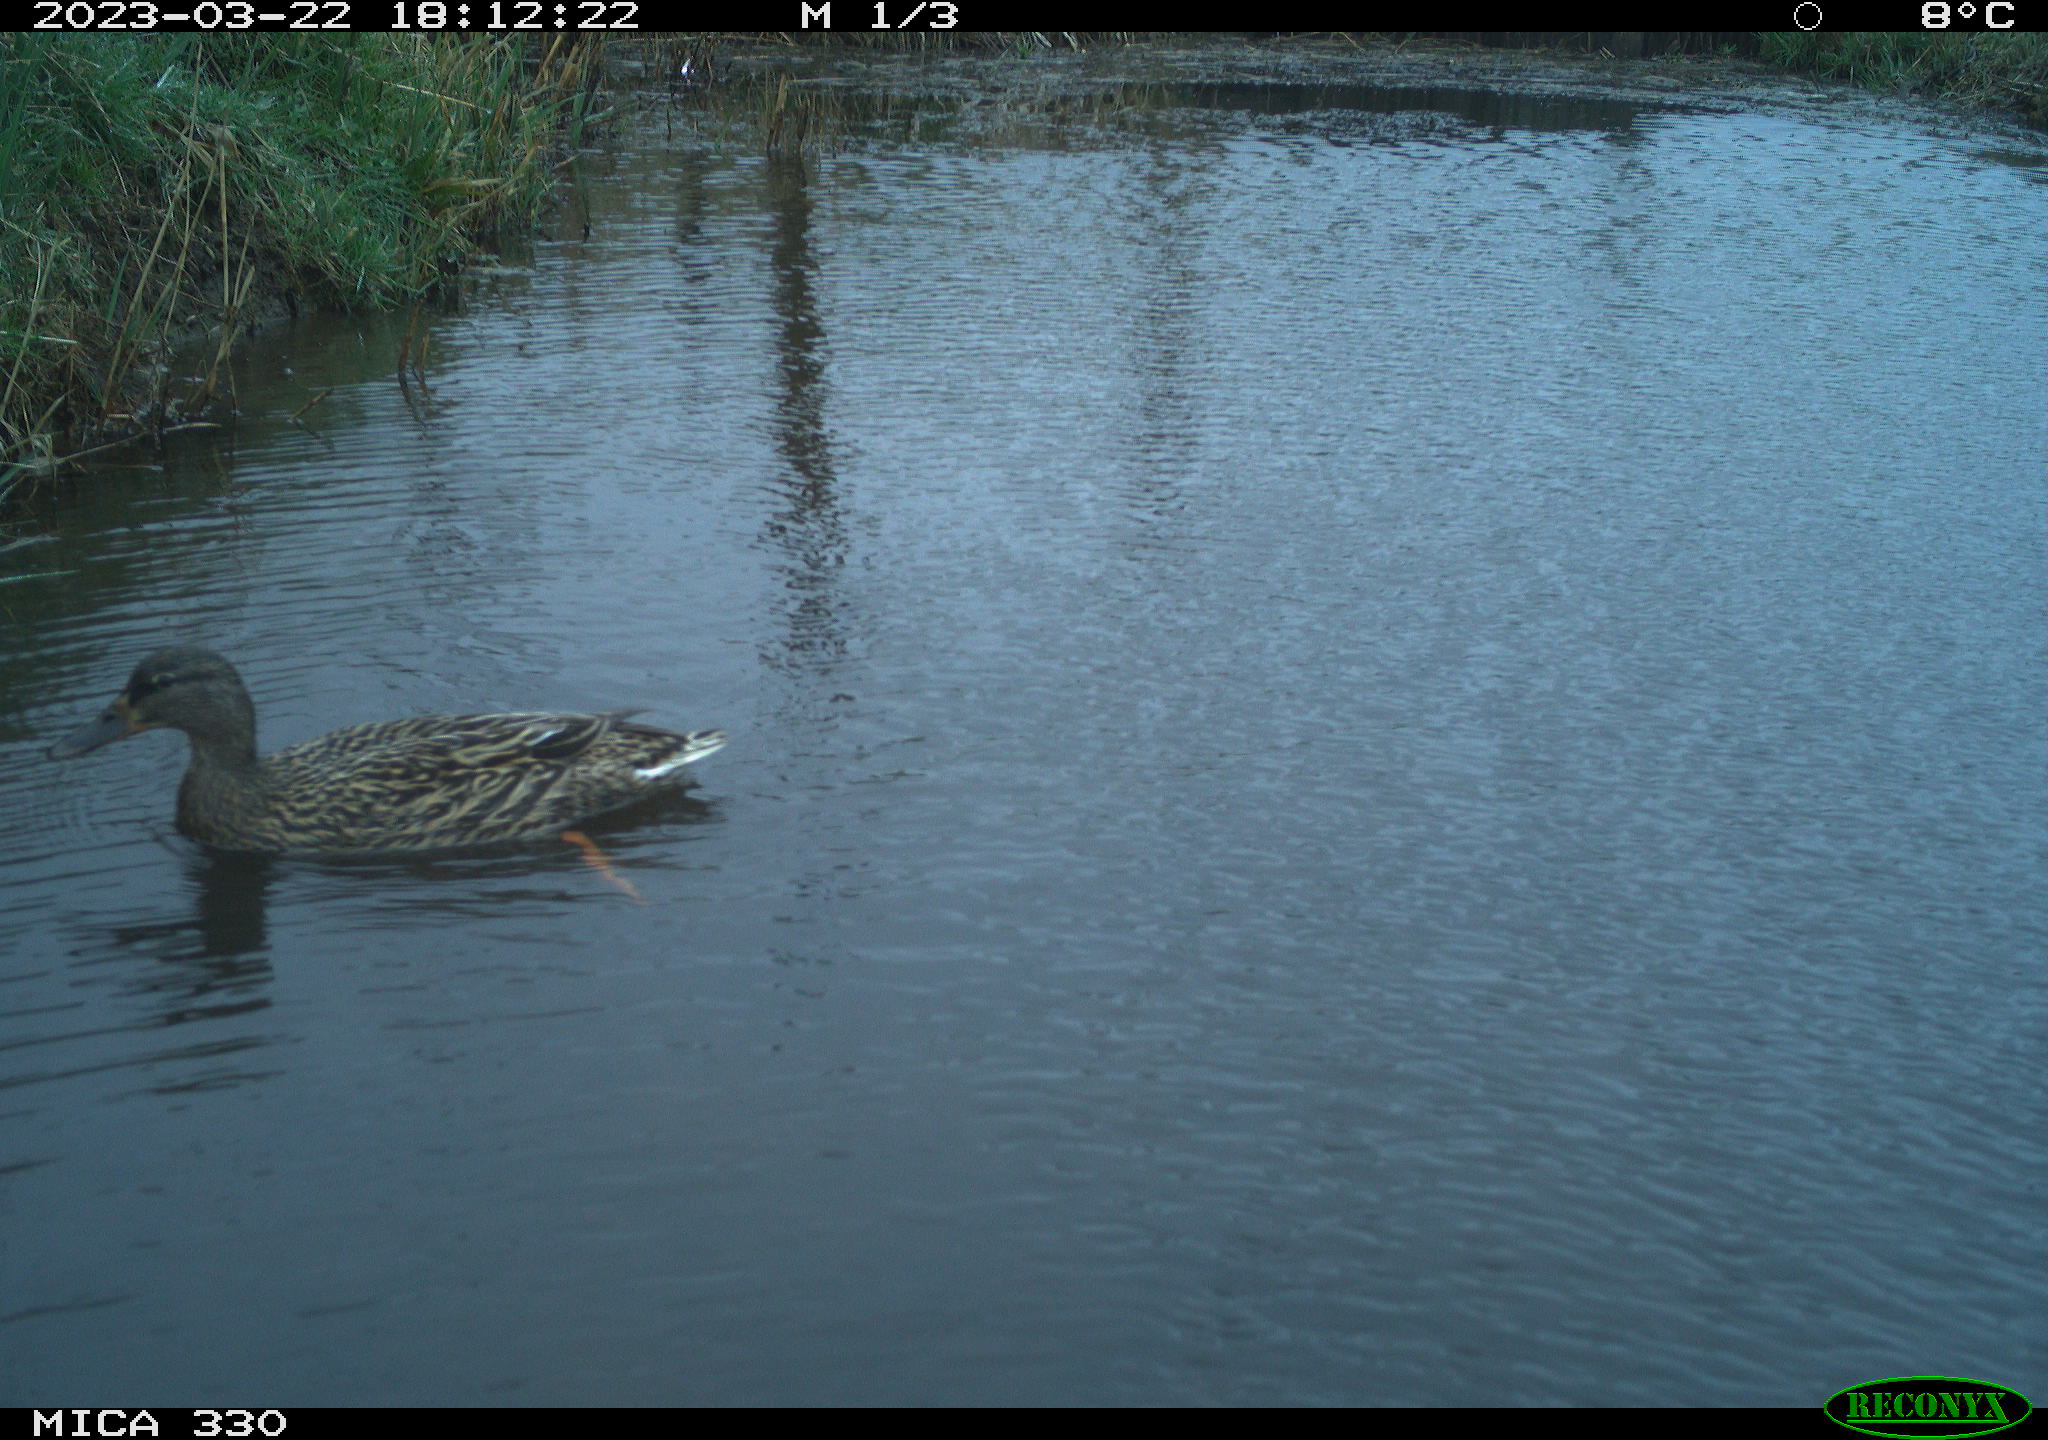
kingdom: Animalia
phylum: Chordata
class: Aves
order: Anseriformes
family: Anatidae
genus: Anas
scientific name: Anas
